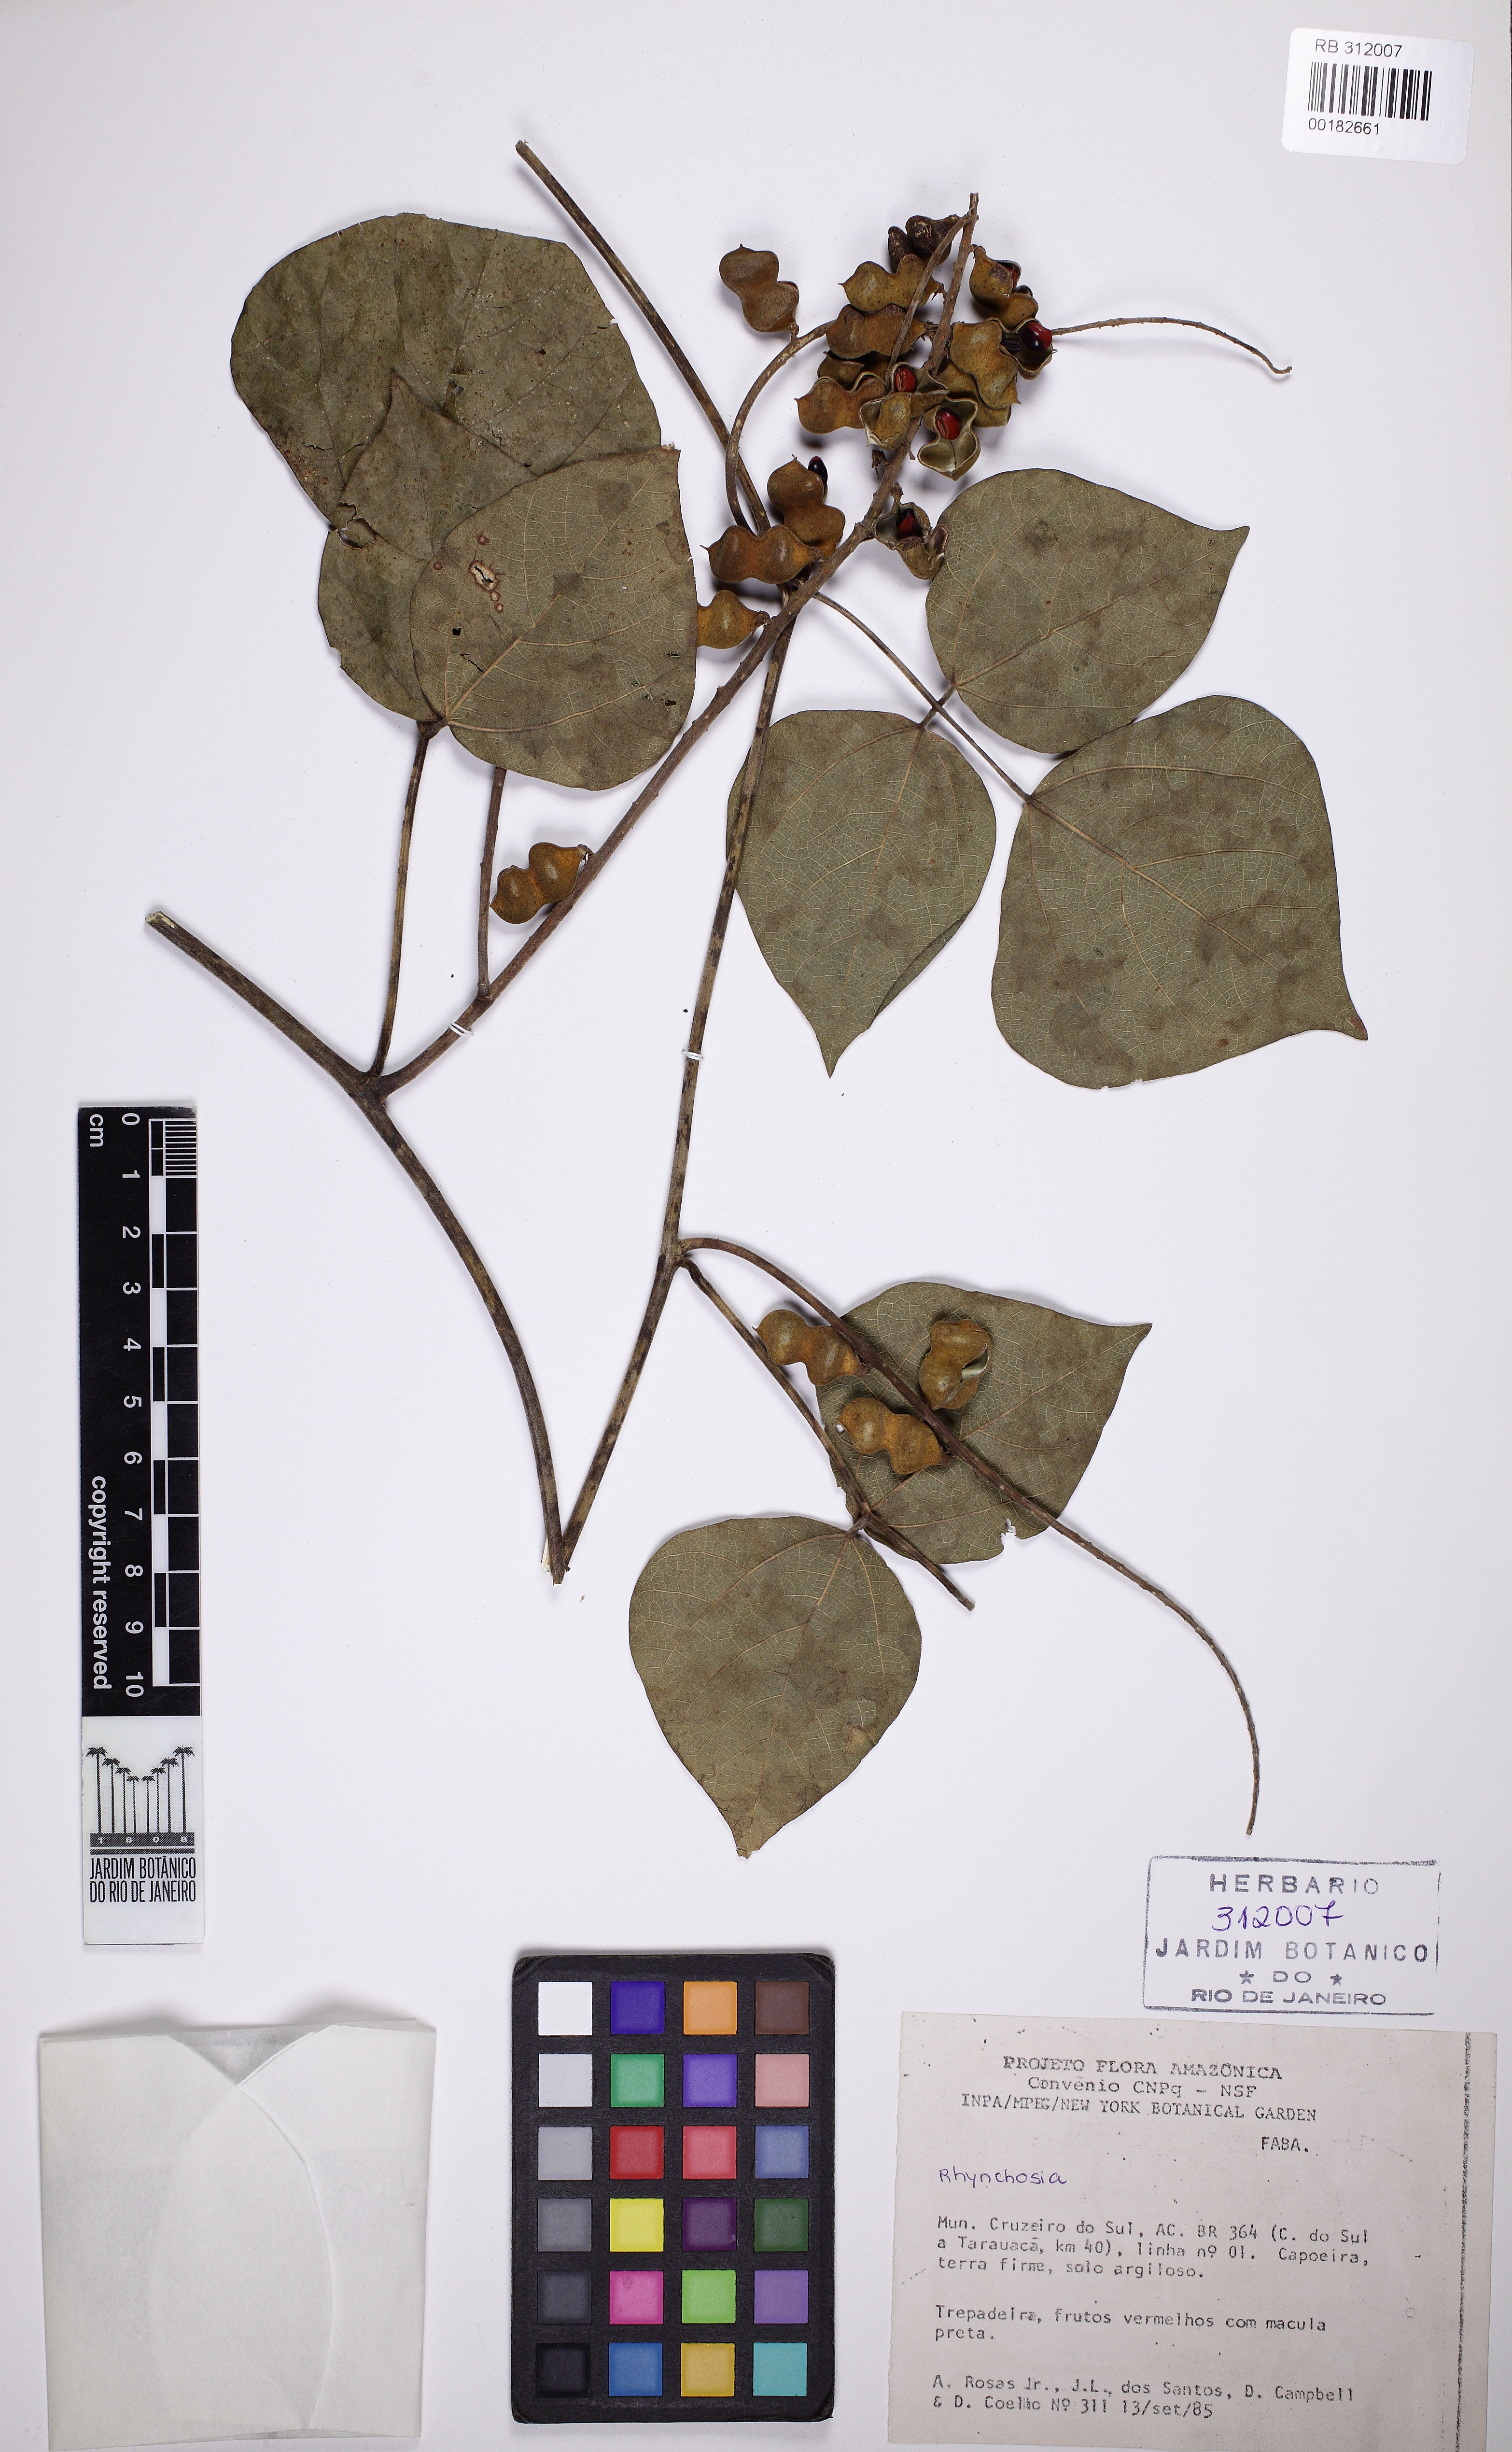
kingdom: Plantae
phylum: Tracheophyta
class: Magnoliopsida
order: Fabales
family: Fabaceae
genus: Rhynchosia
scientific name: Rhynchosia
